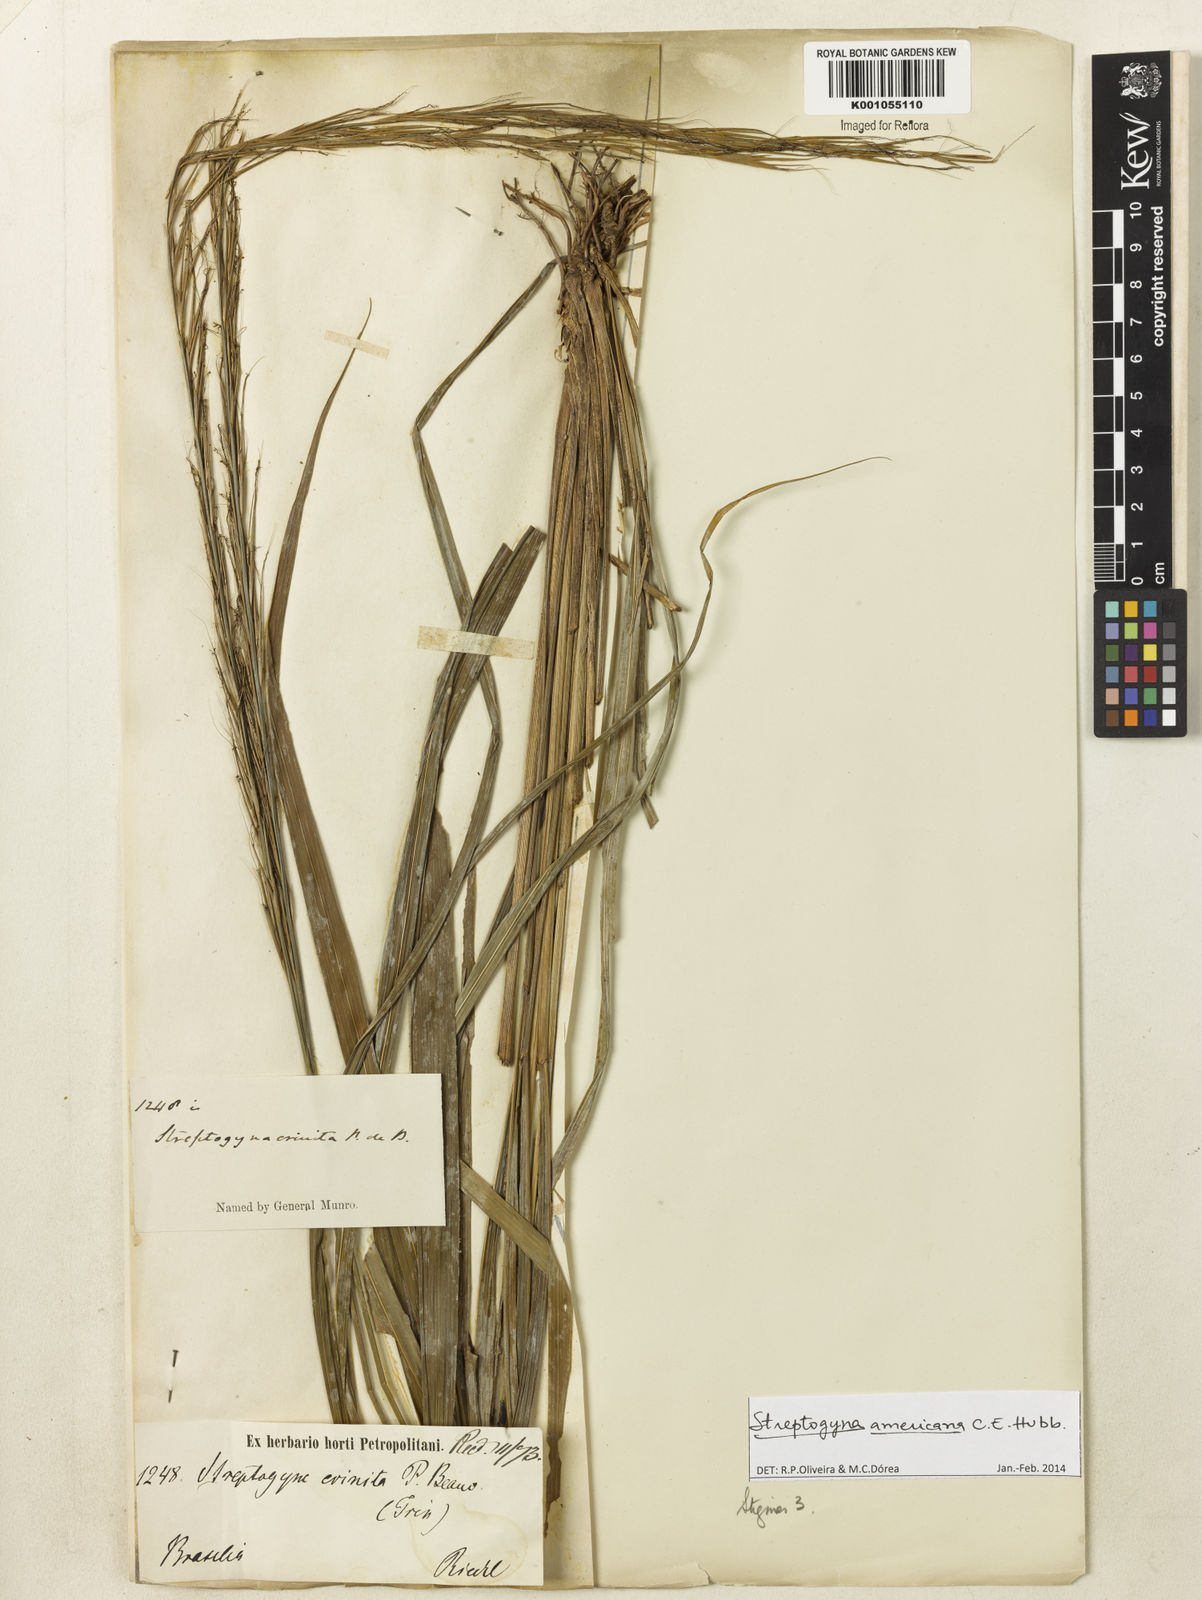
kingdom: Plantae
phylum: Tracheophyta
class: Liliopsida
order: Poales
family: Poaceae
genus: Streptogyna
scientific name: Streptogyna americana
